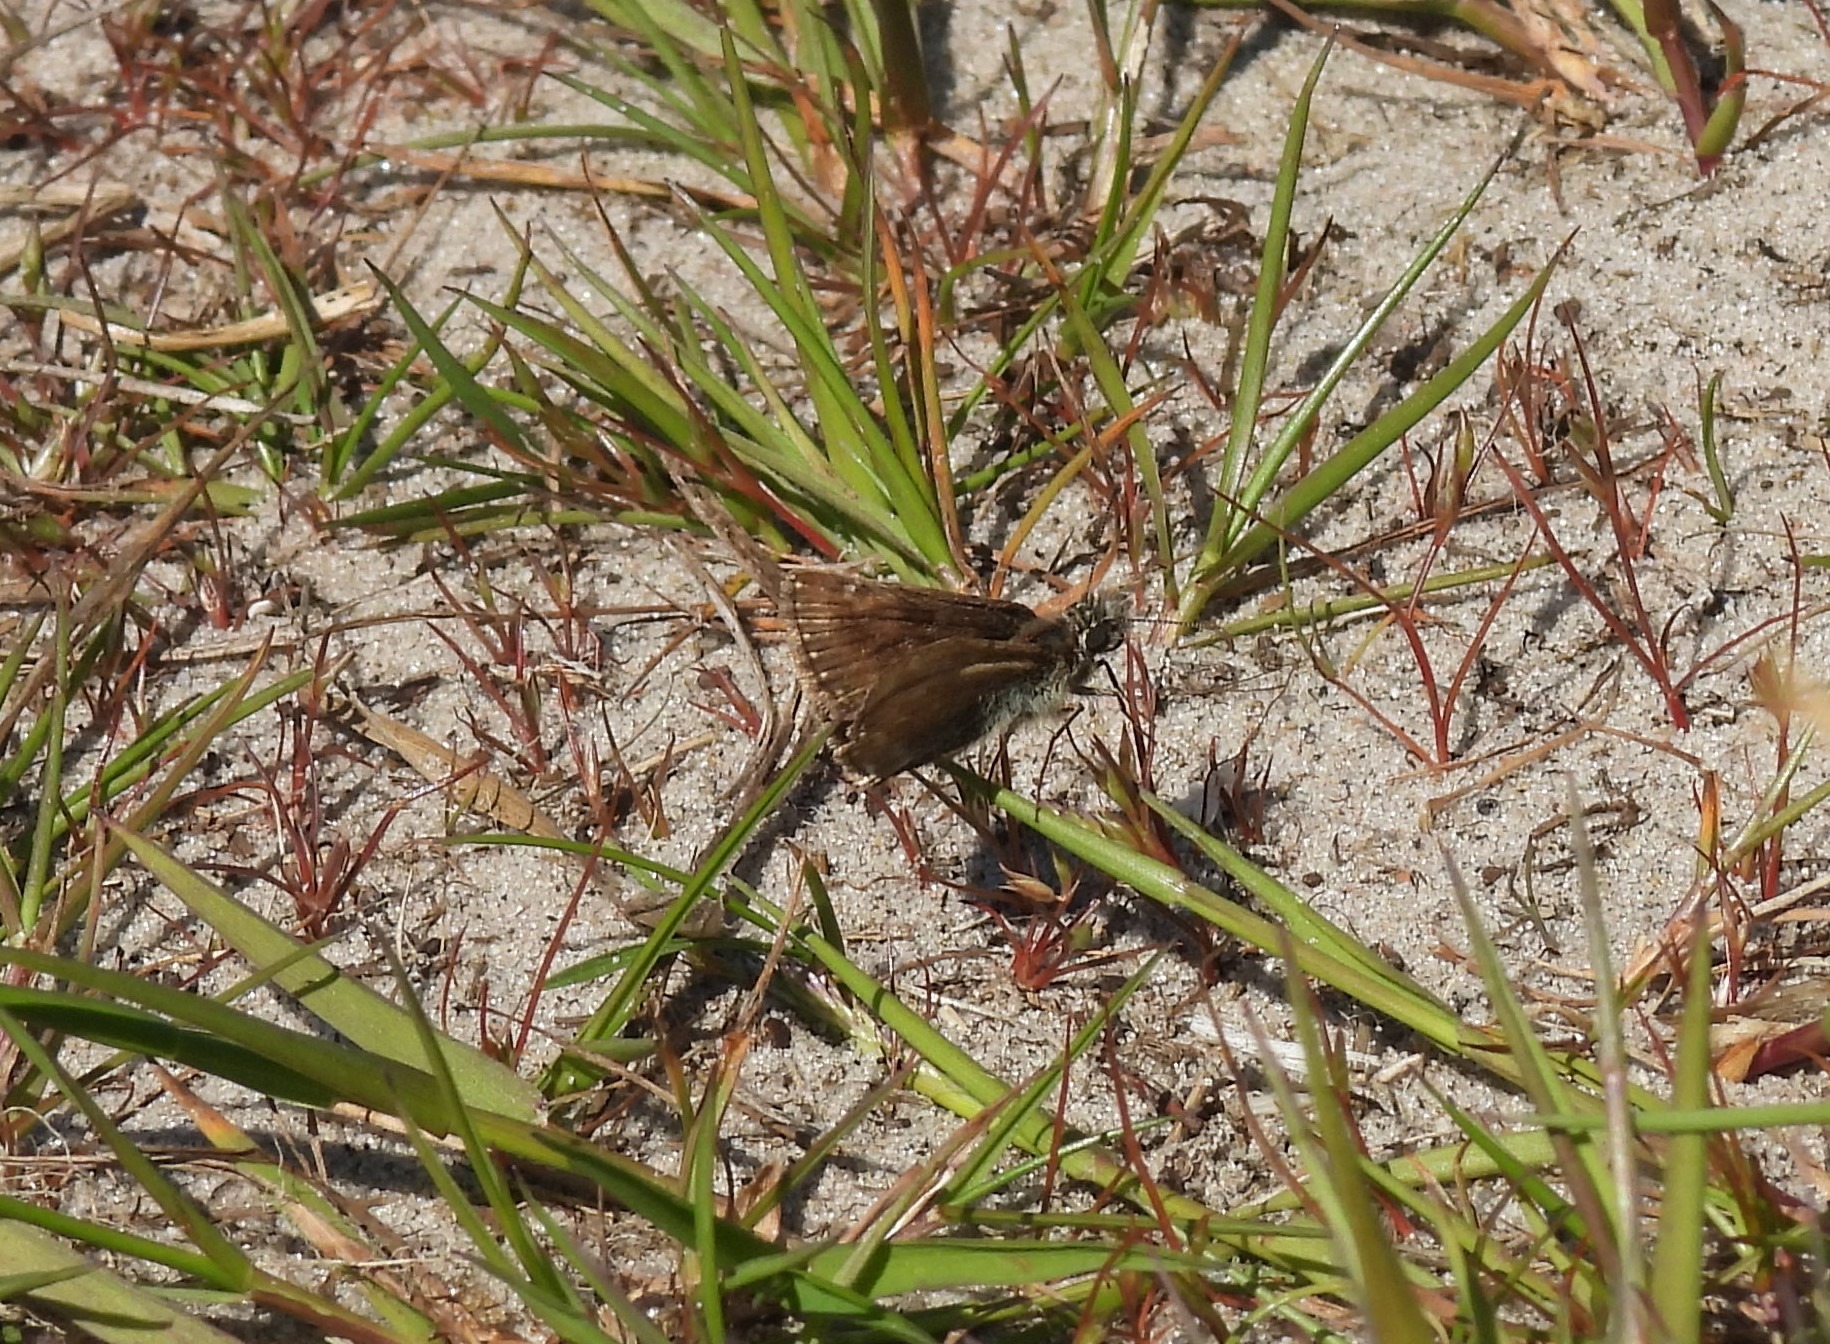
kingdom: Animalia
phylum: Arthropoda
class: Insecta
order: Lepidoptera
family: Hesperiidae
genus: Erynnis
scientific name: Erynnis tages
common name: Gråbåndet bredpande
